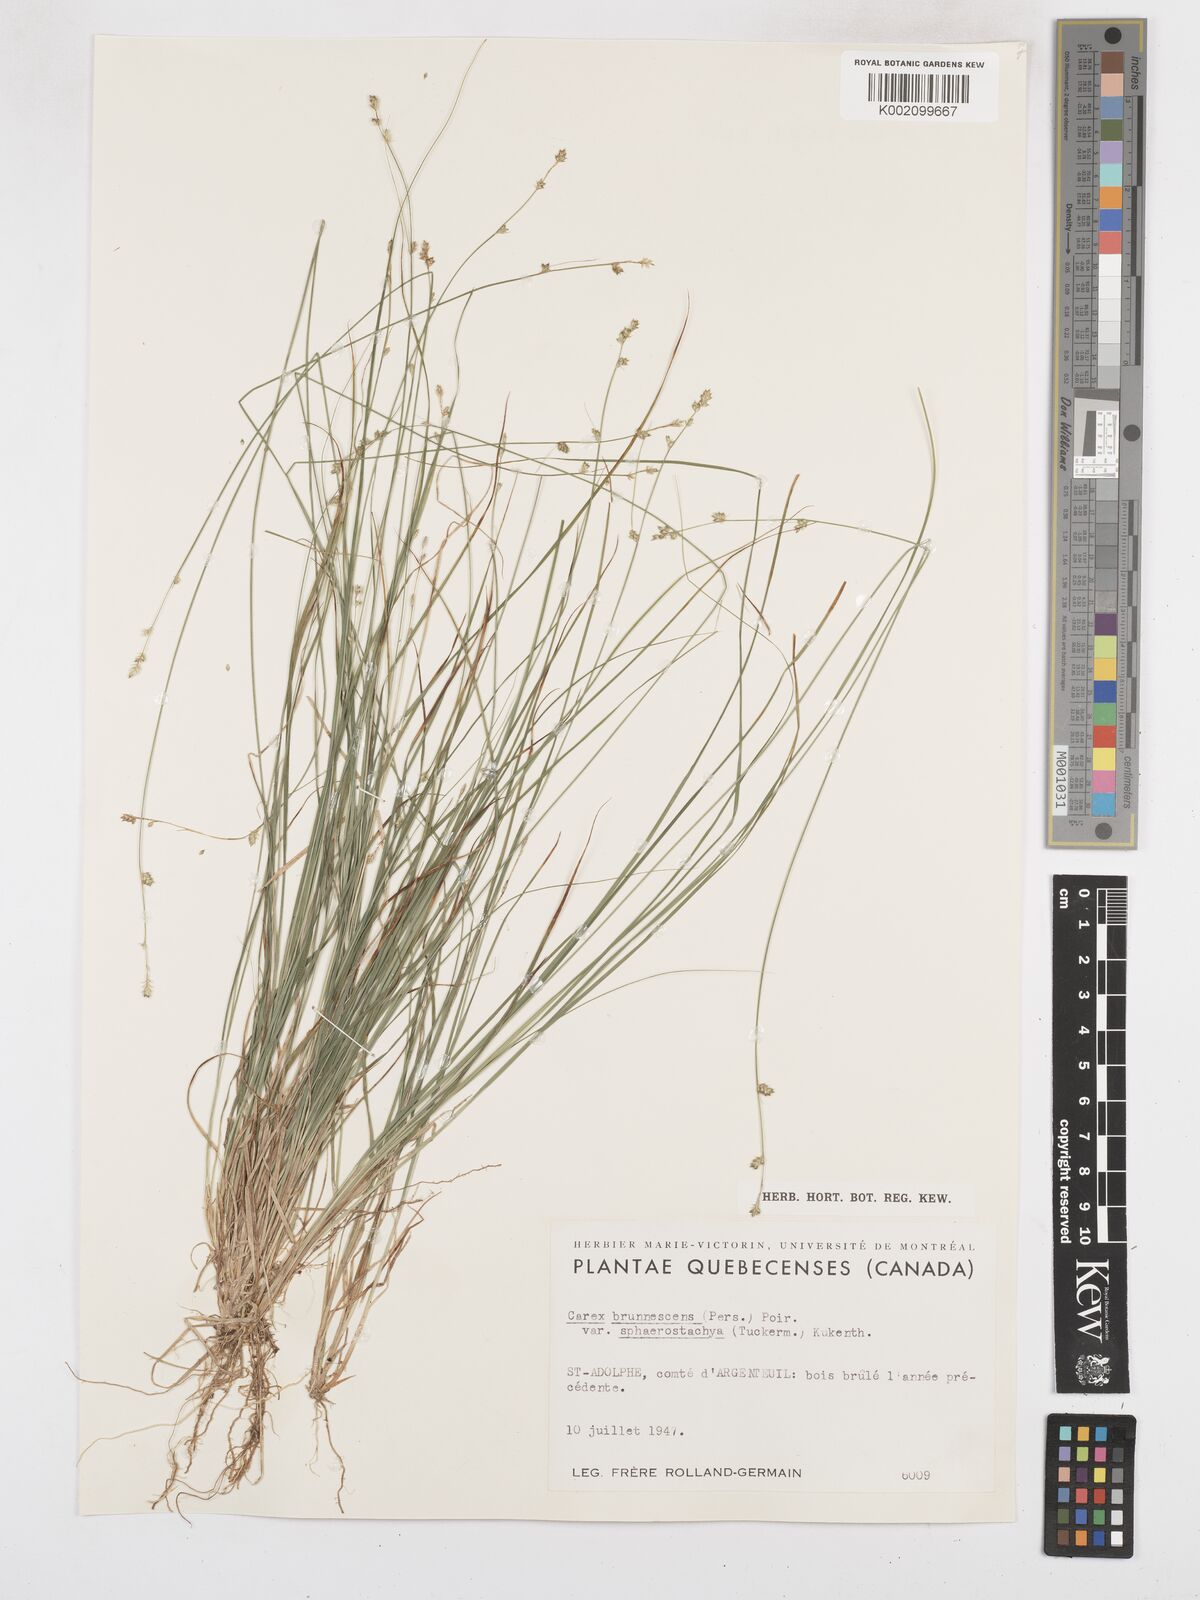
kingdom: Plantae
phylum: Tracheophyta
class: Liliopsida
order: Poales
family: Cyperaceae
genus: Carex
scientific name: Carex brunnescens
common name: Brown sedge
